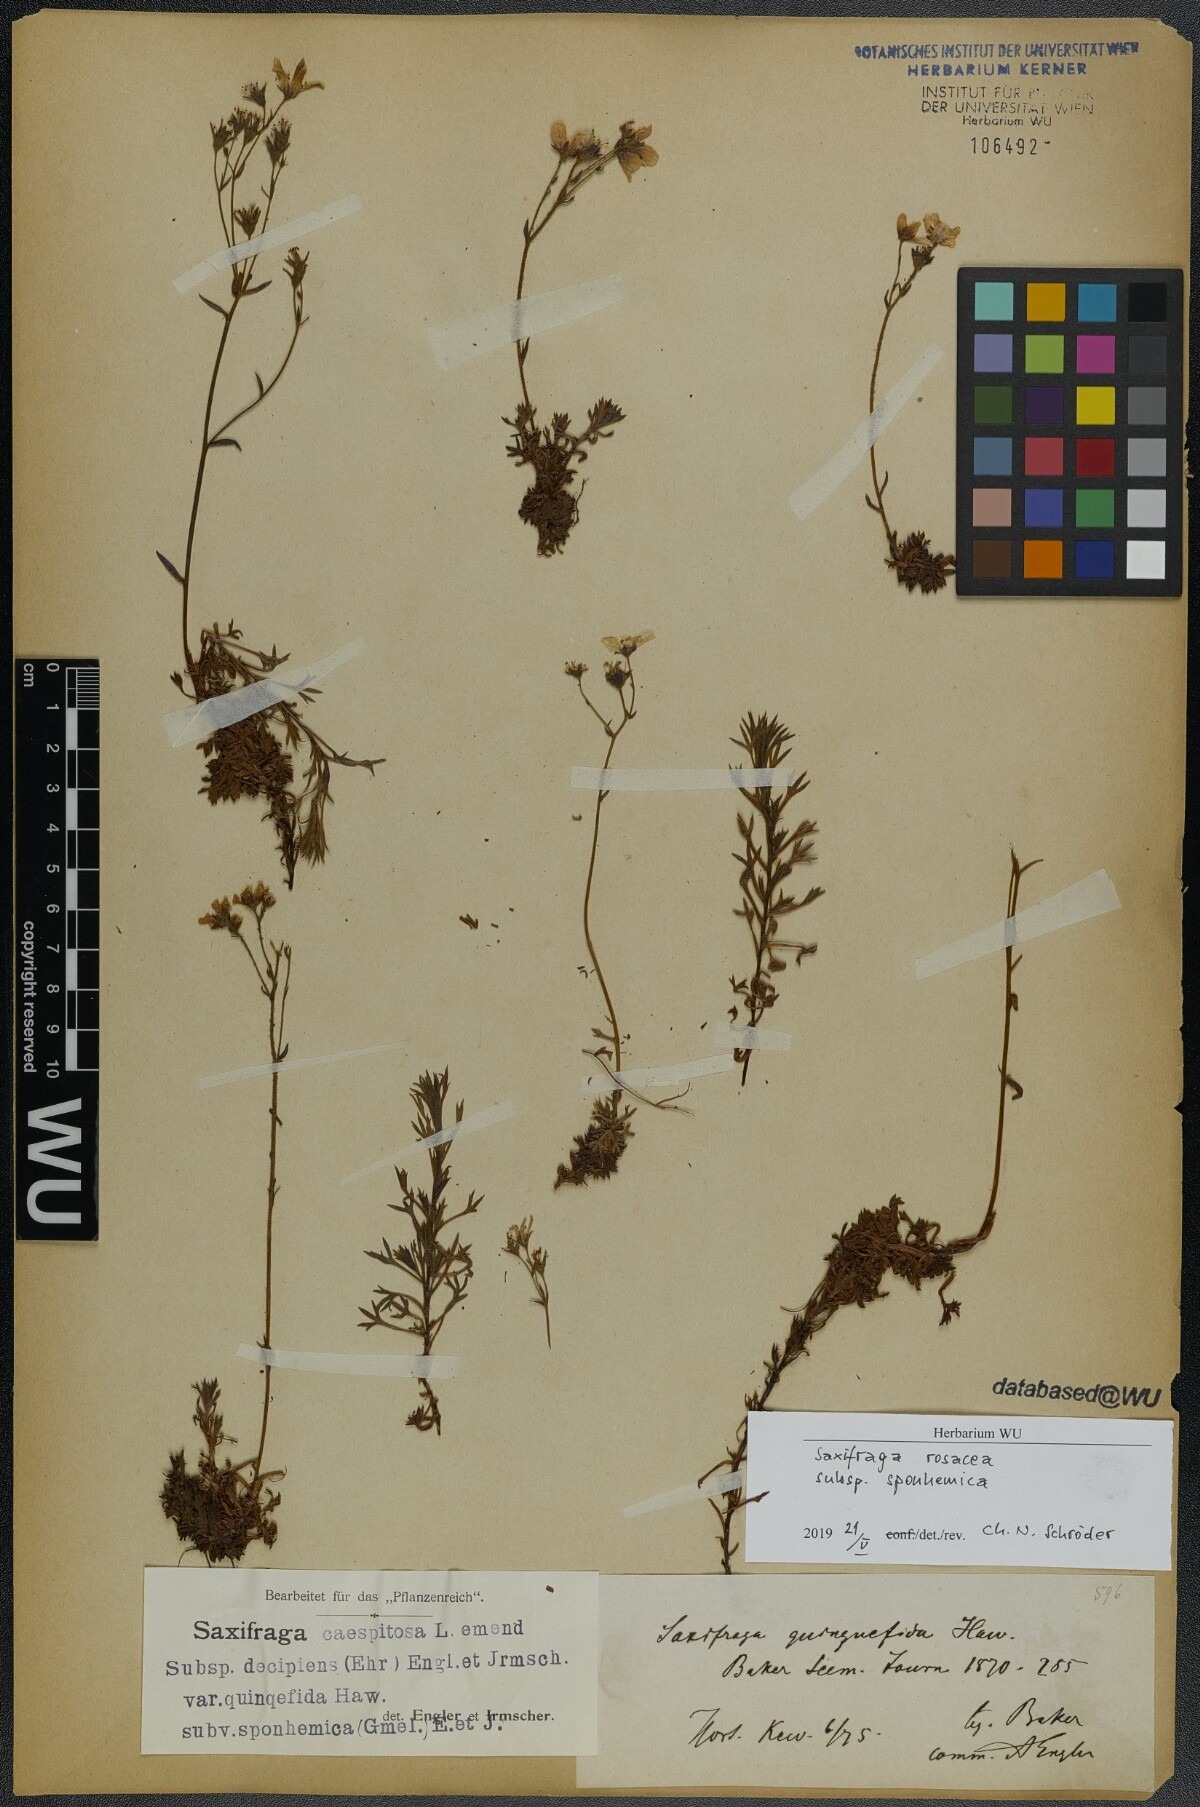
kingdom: Plantae
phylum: Tracheophyta
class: Magnoliopsida
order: Saxifragales
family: Saxifragaceae
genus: Saxifraga
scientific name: Saxifraga rosacea
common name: Irish saxifrage
